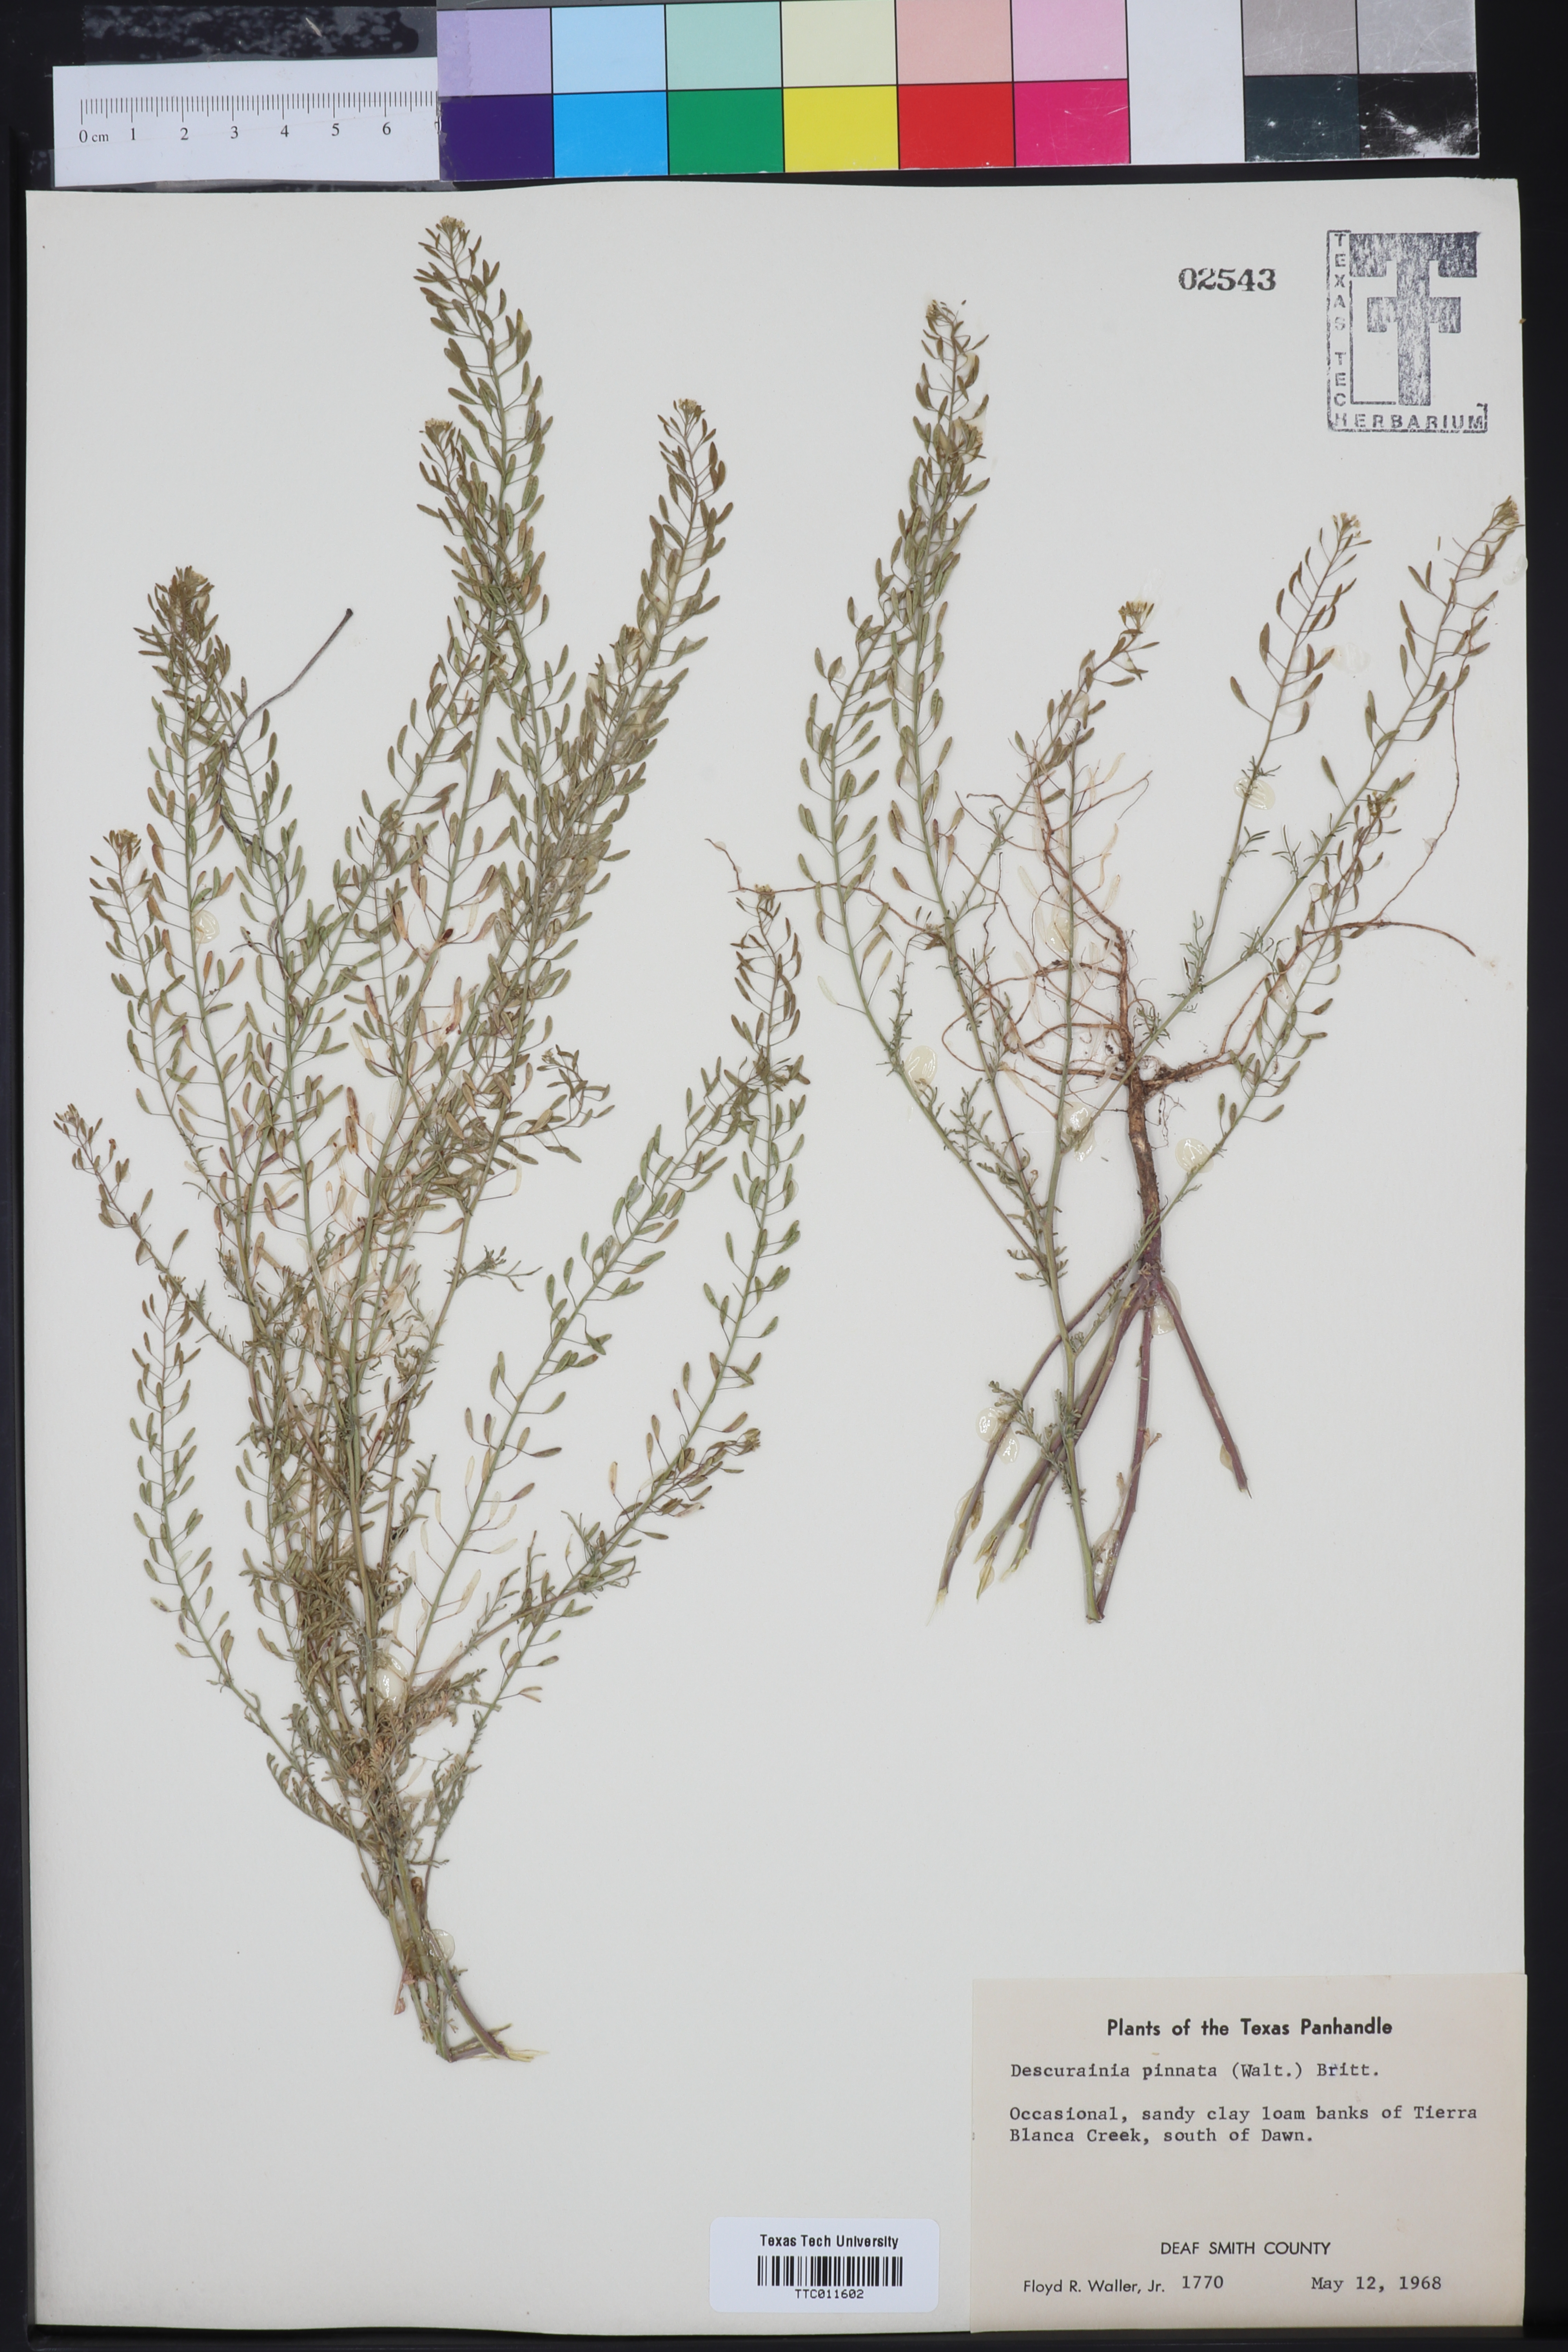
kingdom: Plantae
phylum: Tracheophyta
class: Magnoliopsida
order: Brassicales
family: Brassicaceae
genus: Descurainia
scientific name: Descurainia pinnata
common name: Western tansy mustard
